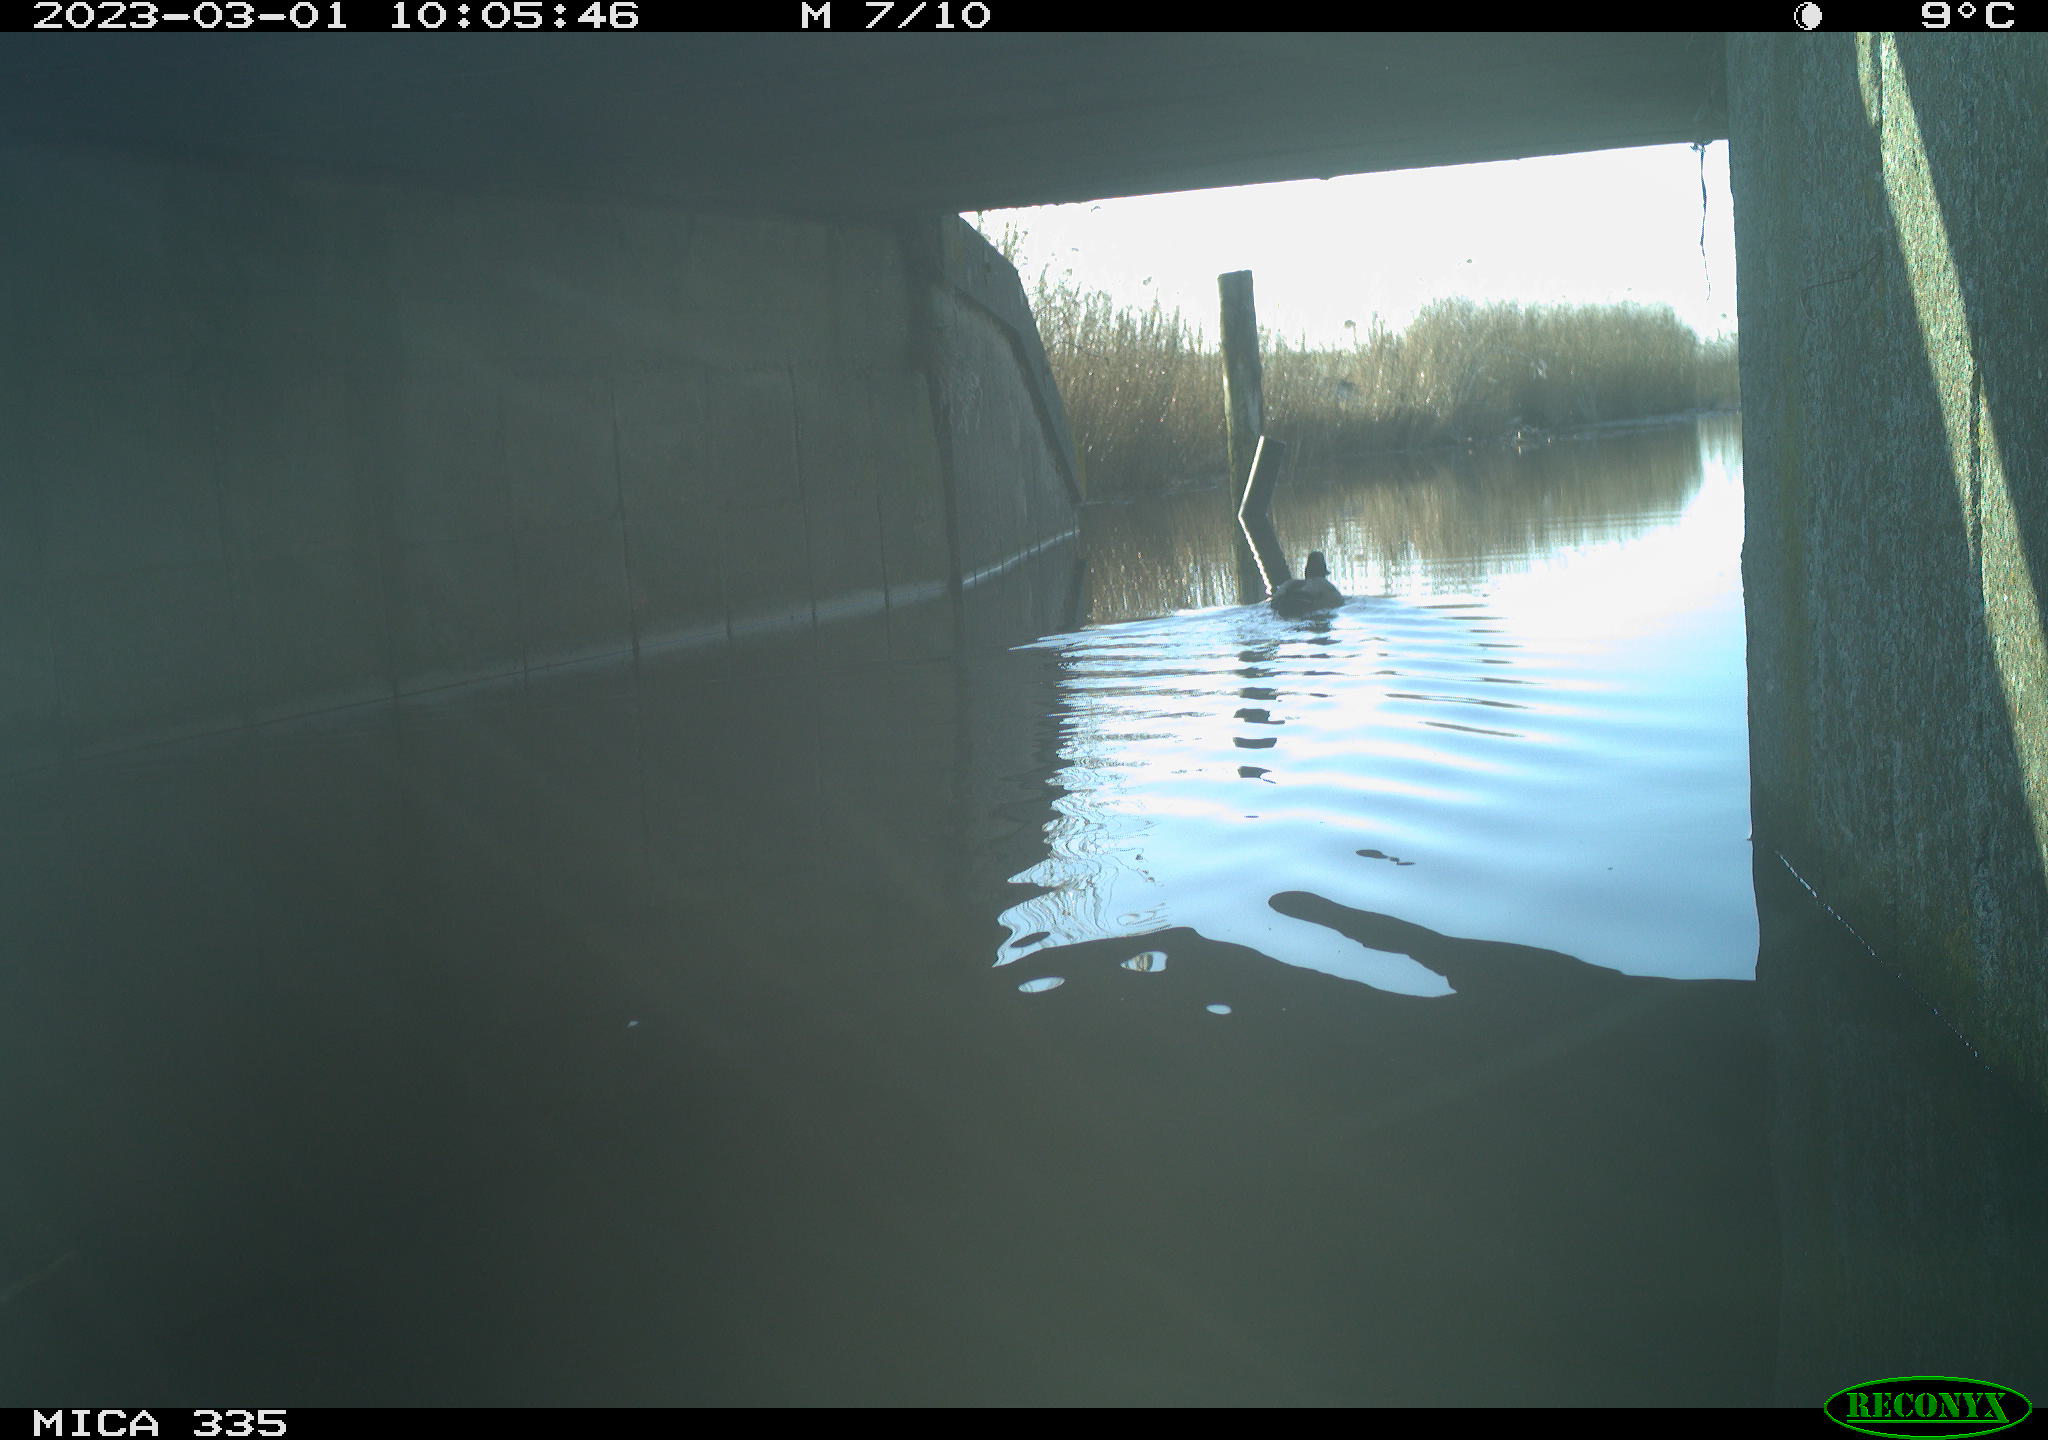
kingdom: Animalia
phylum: Chordata
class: Aves
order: Anseriformes
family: Anatidae
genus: Anas
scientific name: Anas
